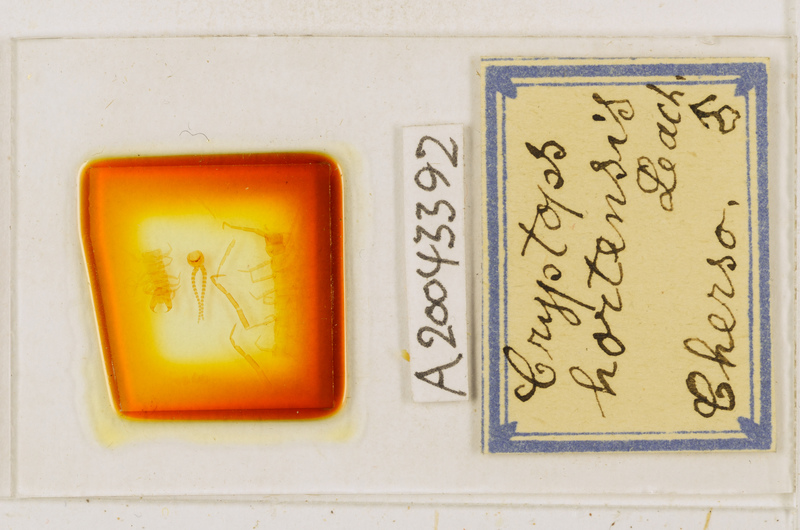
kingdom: Animalia
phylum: Arthropoda
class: Chilopoda
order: Scolopendromorpha
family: Cryptopidae
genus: Cryptops
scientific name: Cryptops hortensis
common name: Centipede
